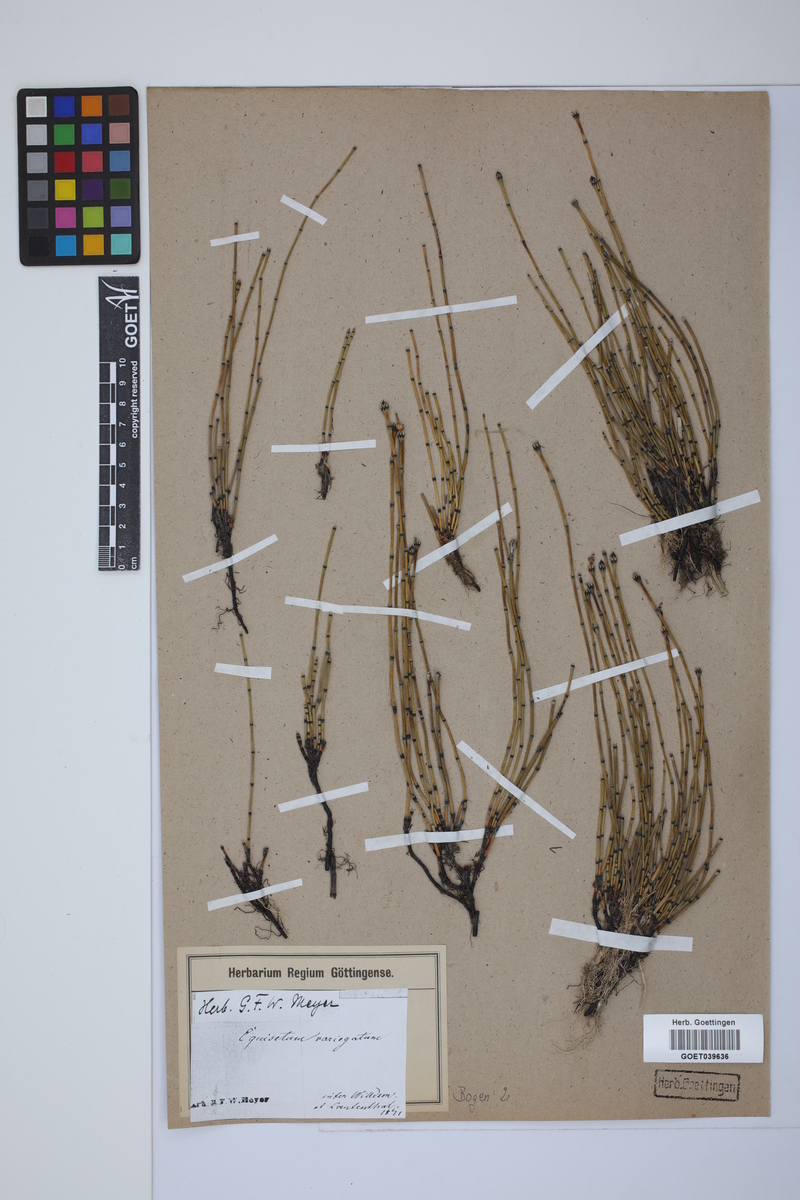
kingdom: Plantae
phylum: Tracheophyta
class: Polypodiopsida
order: Equisetales
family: Equisetaceae
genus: Equisetum
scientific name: Equisetum variegatum
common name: Variegated horsetail
